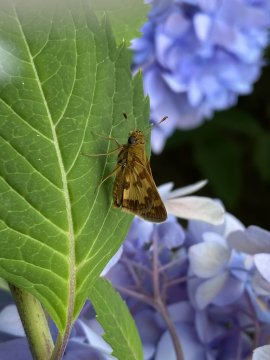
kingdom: Animalia
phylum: Arthropoda
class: Insecta
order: Lepidoptera
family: Hesperiidae
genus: Polites
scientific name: Polites coras
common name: Peck's Skipper
